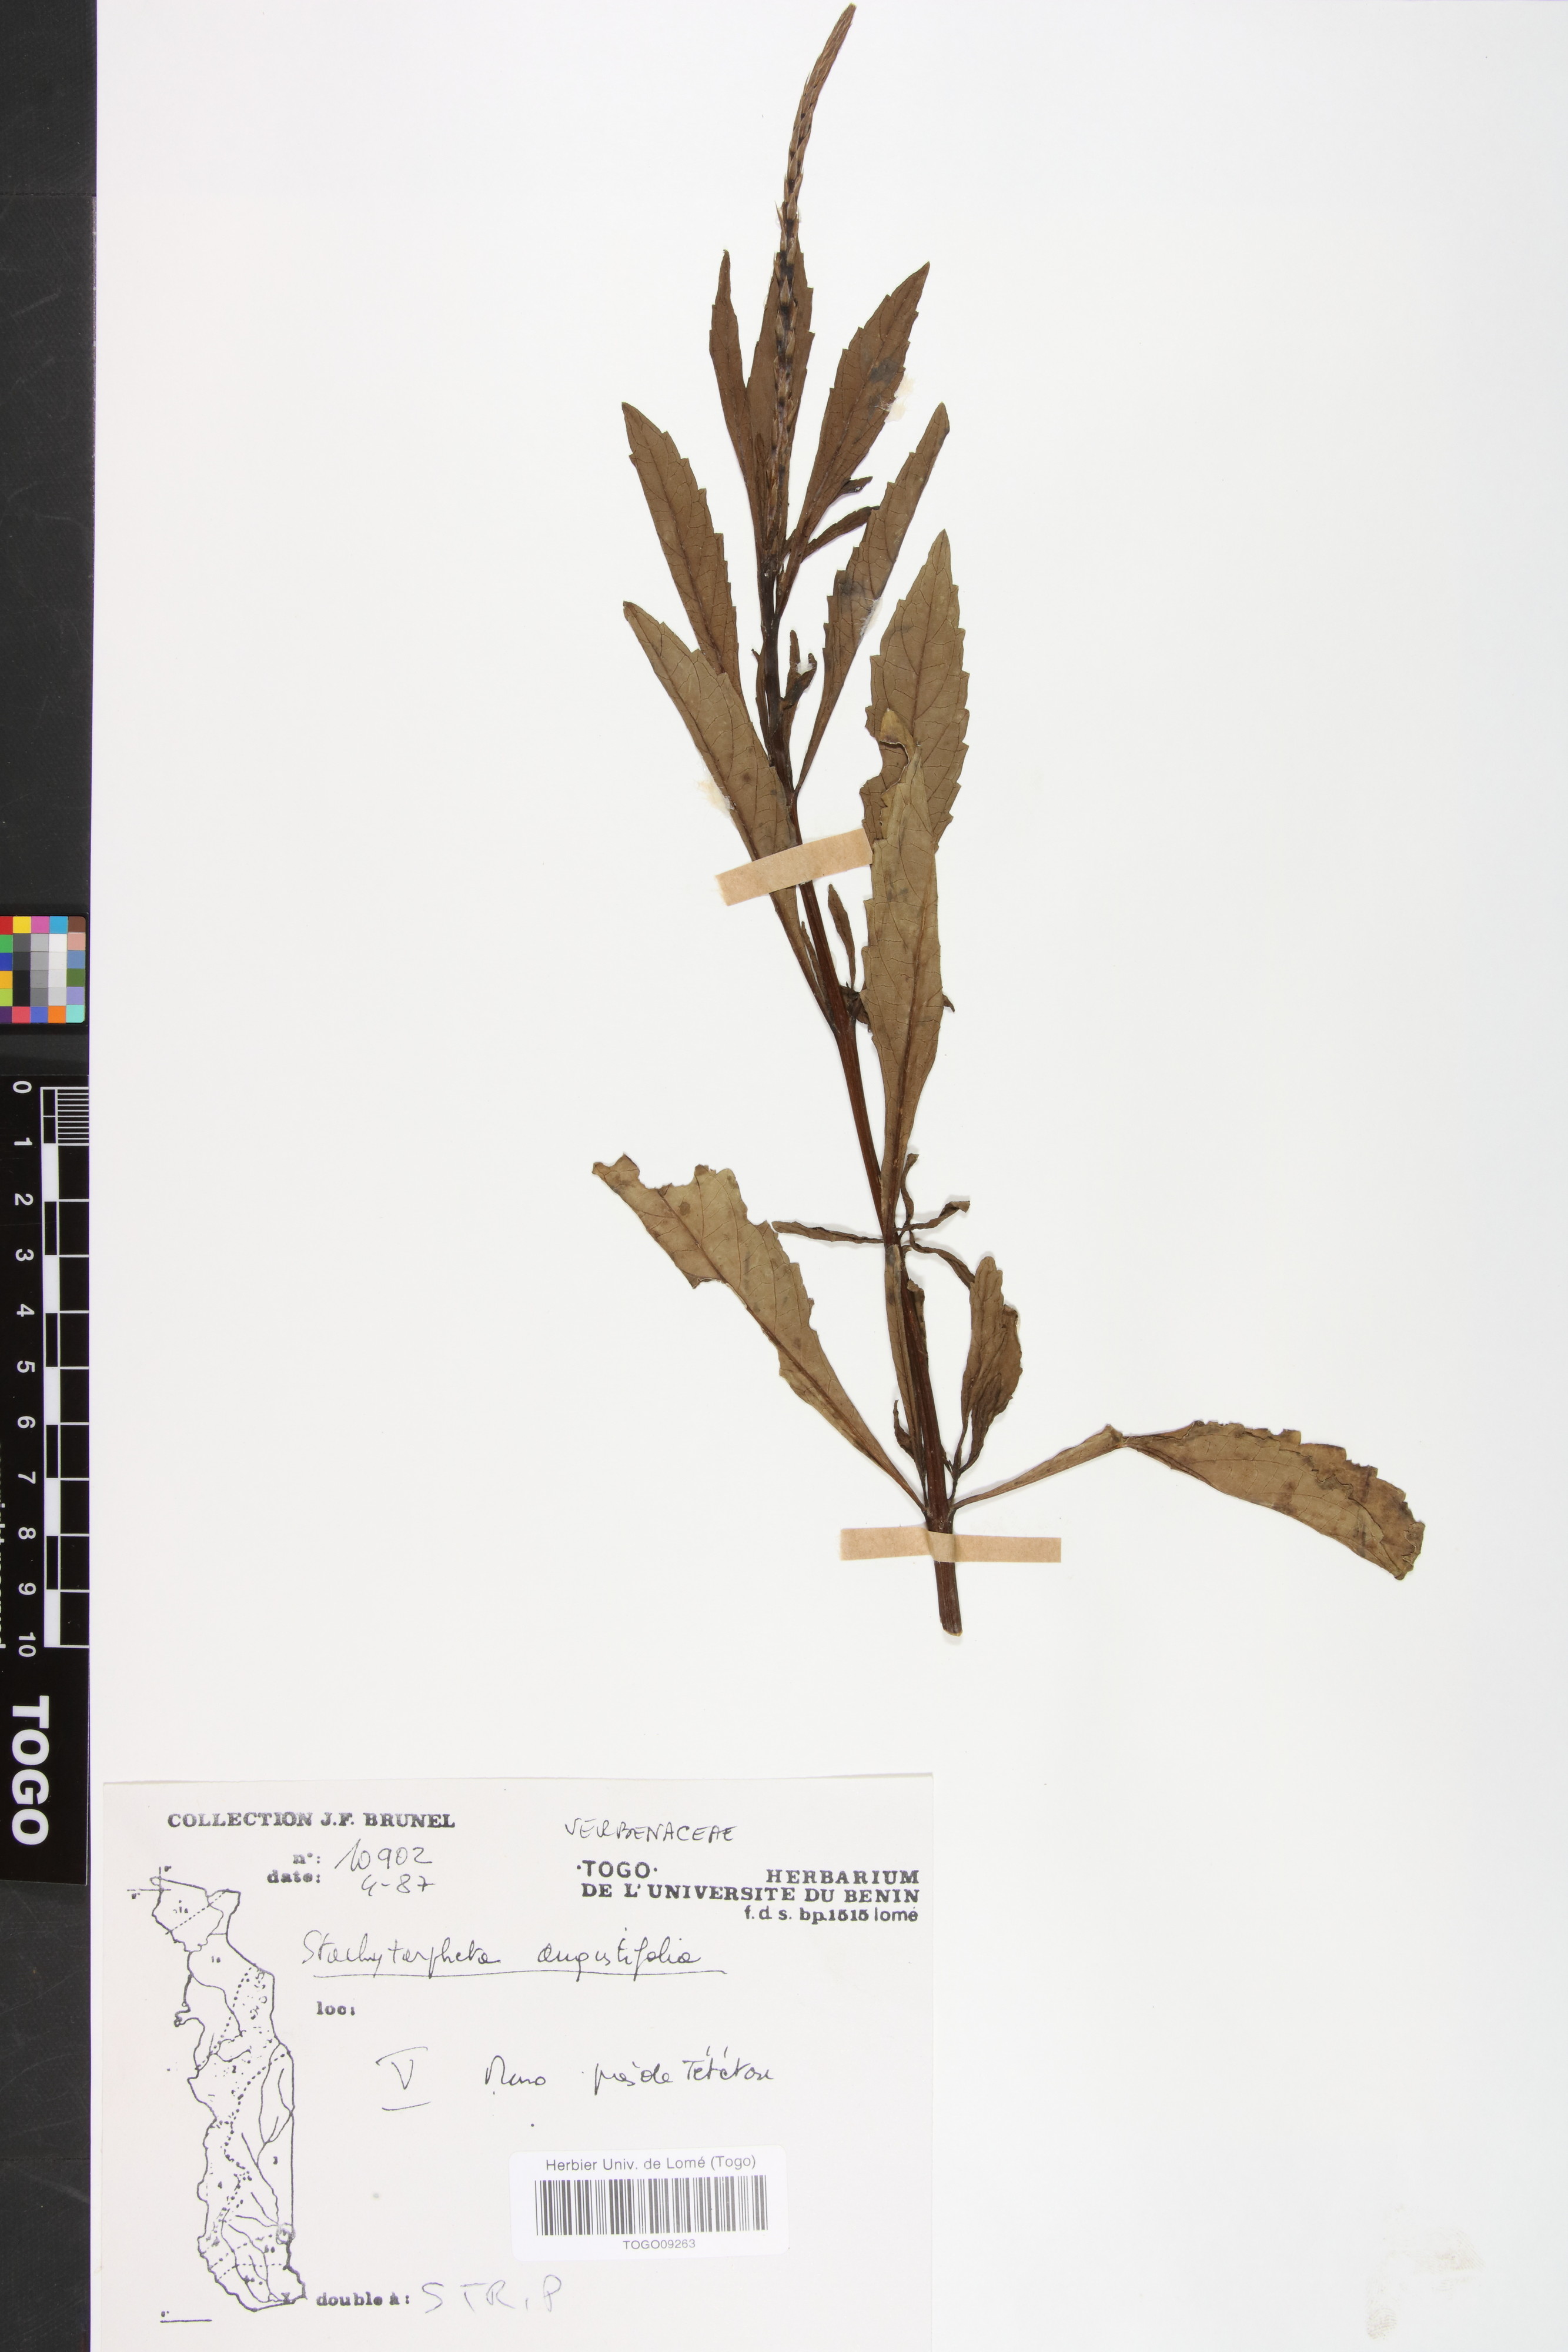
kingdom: Plantae
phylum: Tracheophyta
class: Magnoliopsida
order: Lamiales
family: Verbenaceae
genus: Stachytarpheta
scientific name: Stachytarpheta indica
